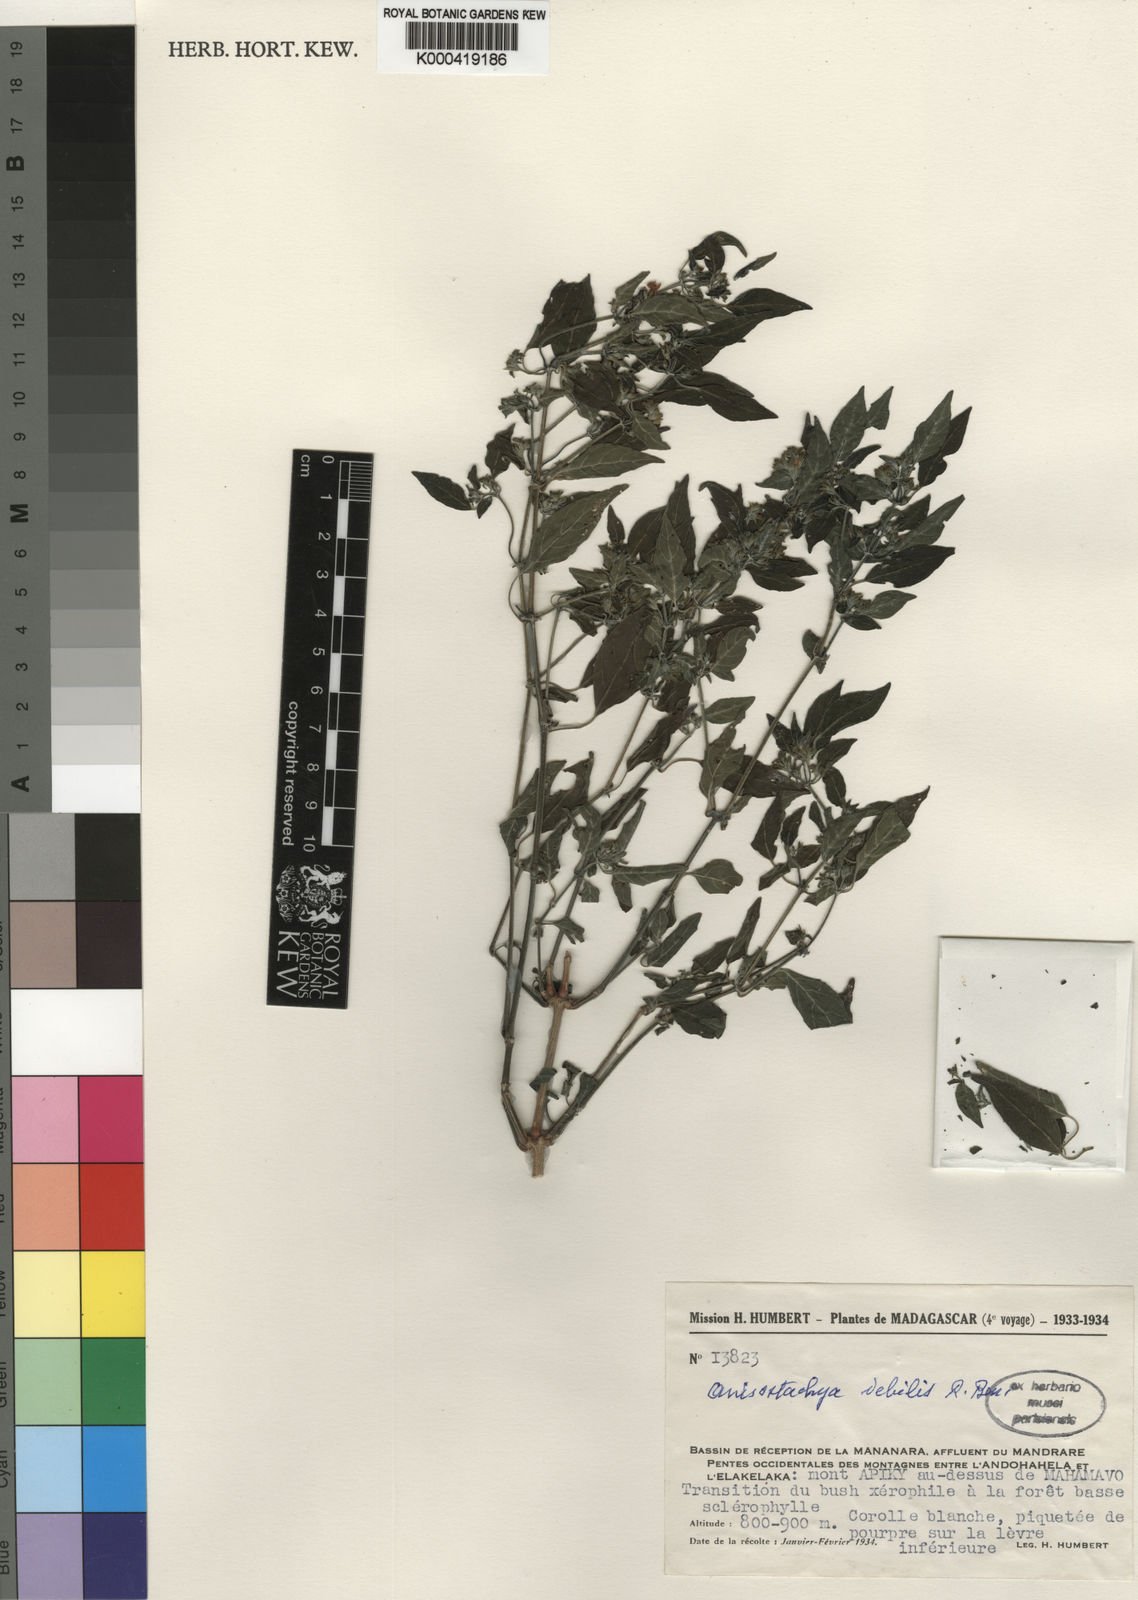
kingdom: Plantae
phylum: Tracheophyta
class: Magnoliopsida
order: Lamiales
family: Acanthaceae
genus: Monechma
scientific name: Monechma debile
